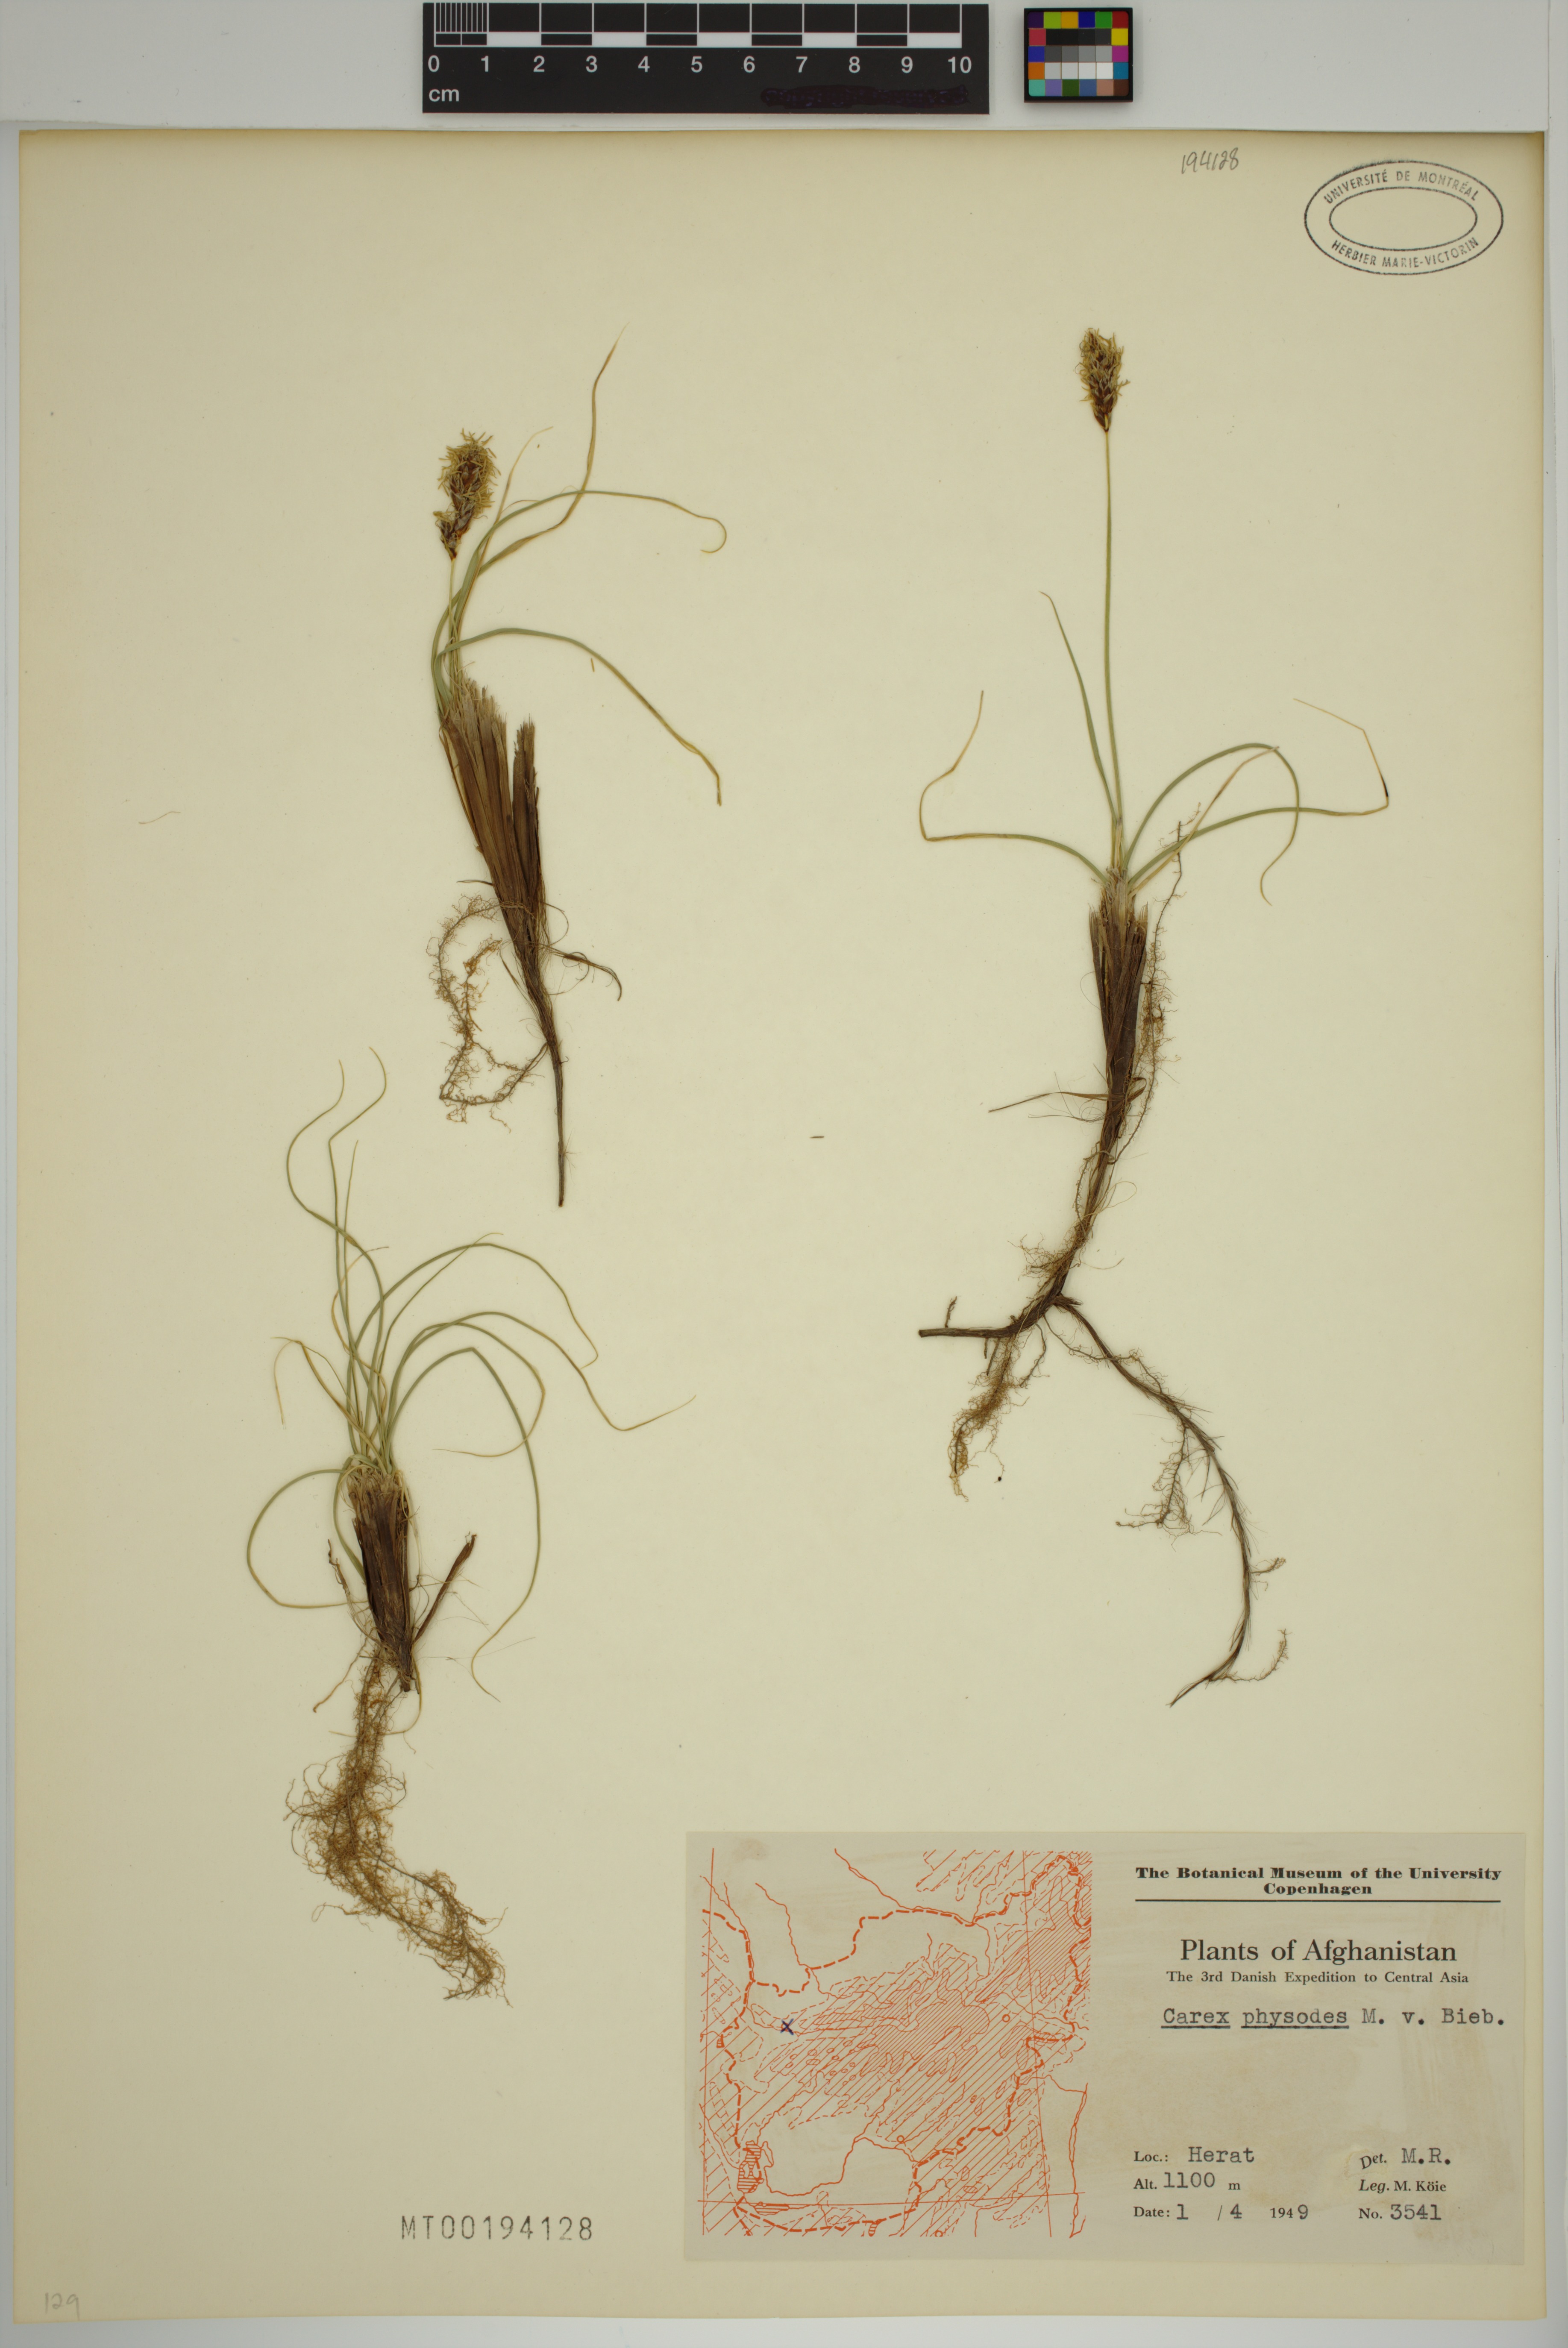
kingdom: Plantae
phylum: Tracheophyta
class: Liliopsida
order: Poales
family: Cyperaceae
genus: Carex
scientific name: Carex physodes
